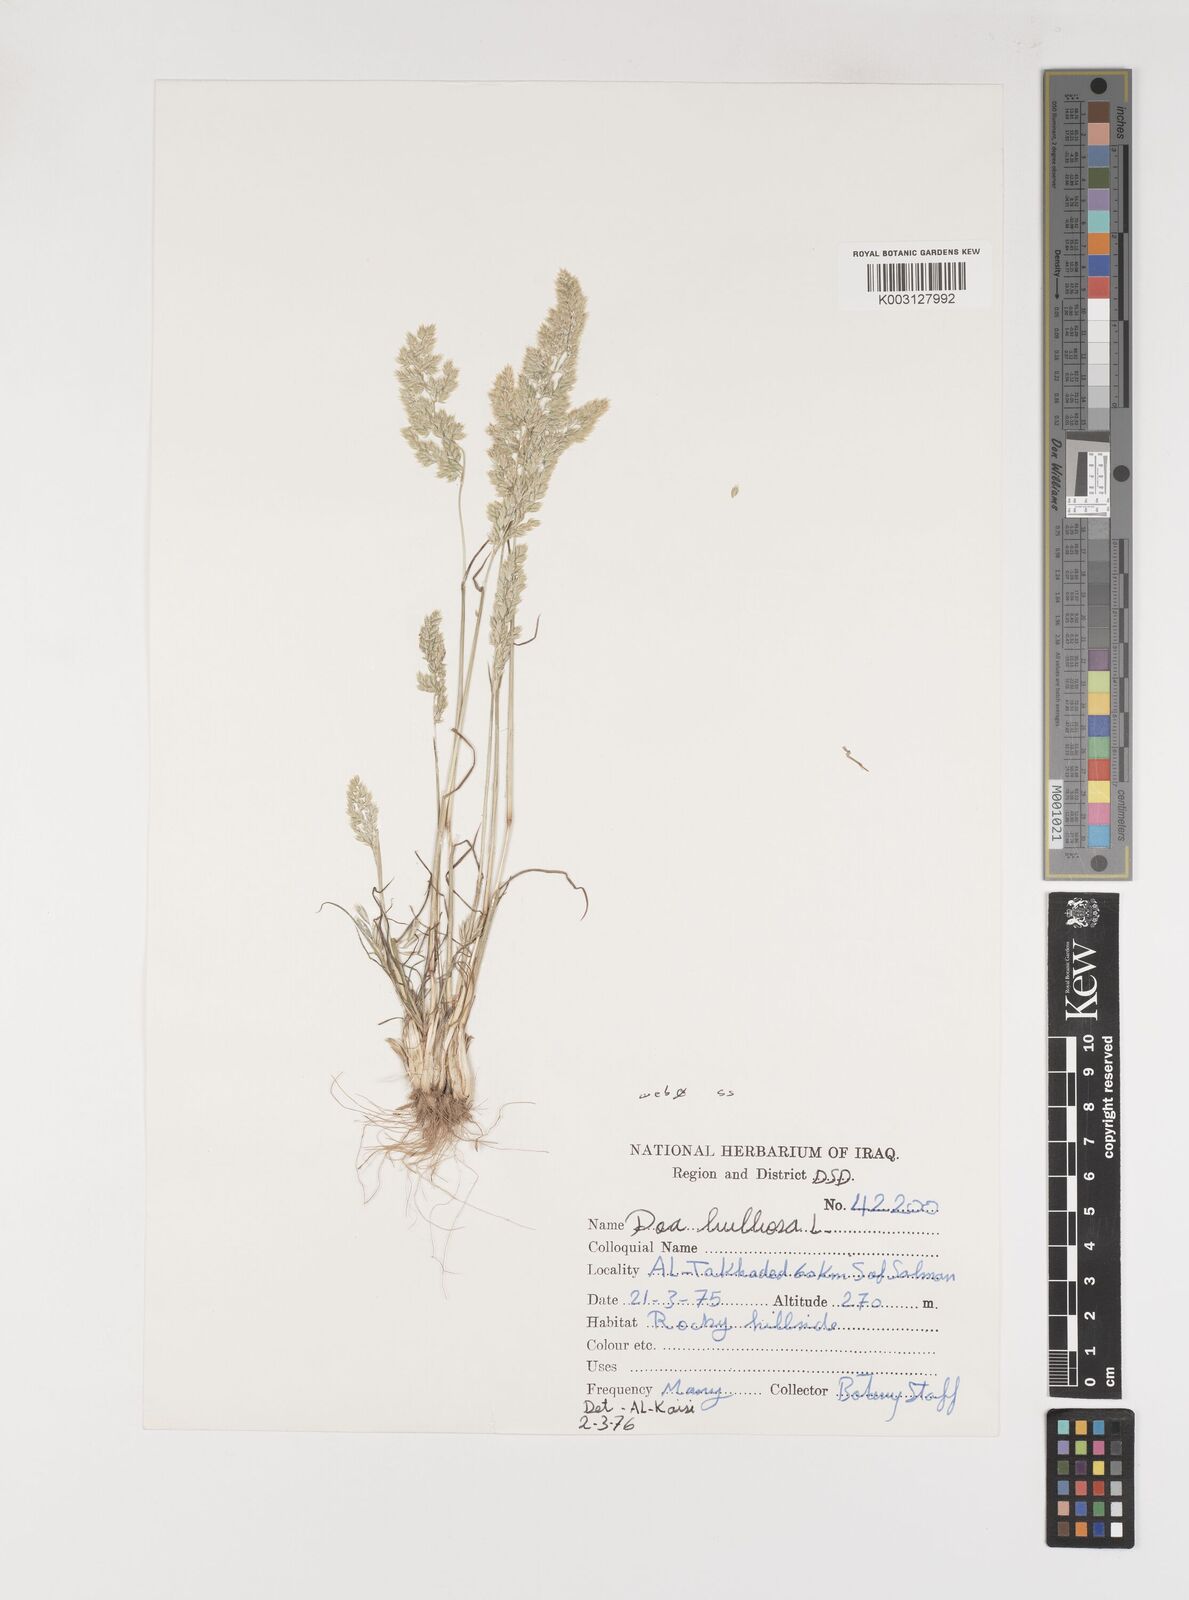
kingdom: Plantae
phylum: Tracheophyta
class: Liliopsida
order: Poales
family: Poaceae
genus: Poa
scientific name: Poa bulbosa
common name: Bulbous bluegrass
